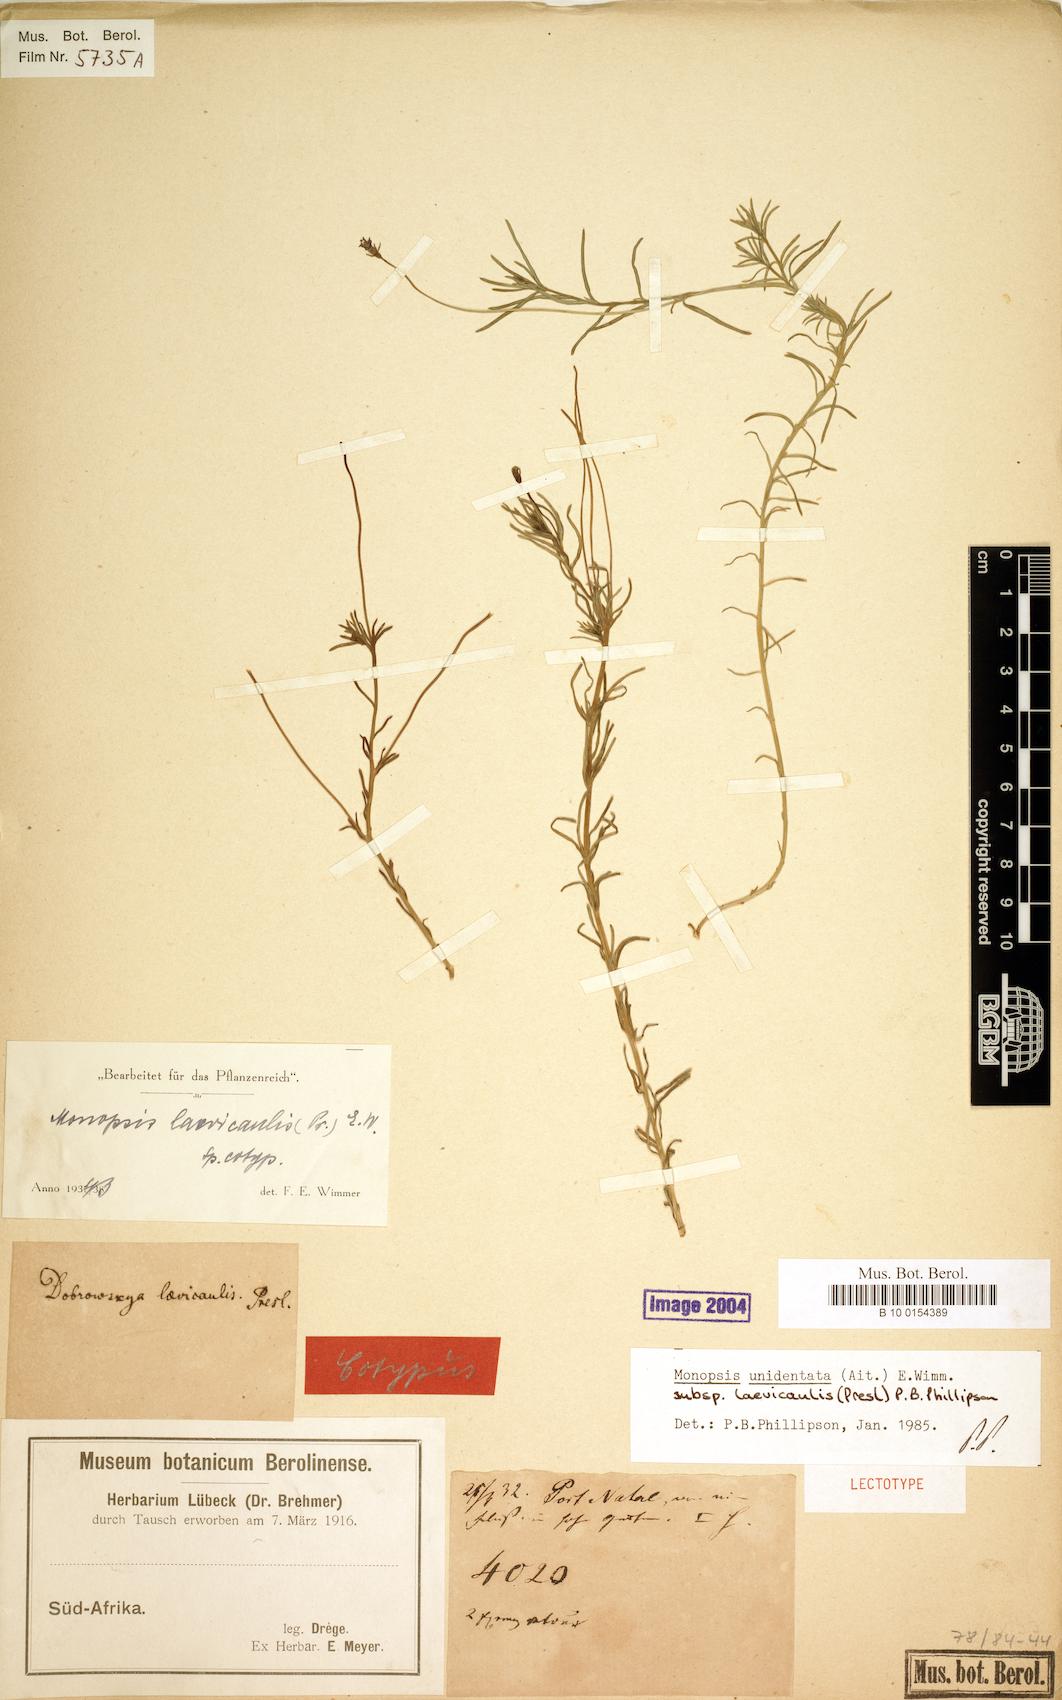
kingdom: Plantae
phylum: Tracheophyta
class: Magnoliopsida
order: Asterales
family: Campanulaceae
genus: Monopsis
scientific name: Monopsis unidentata
